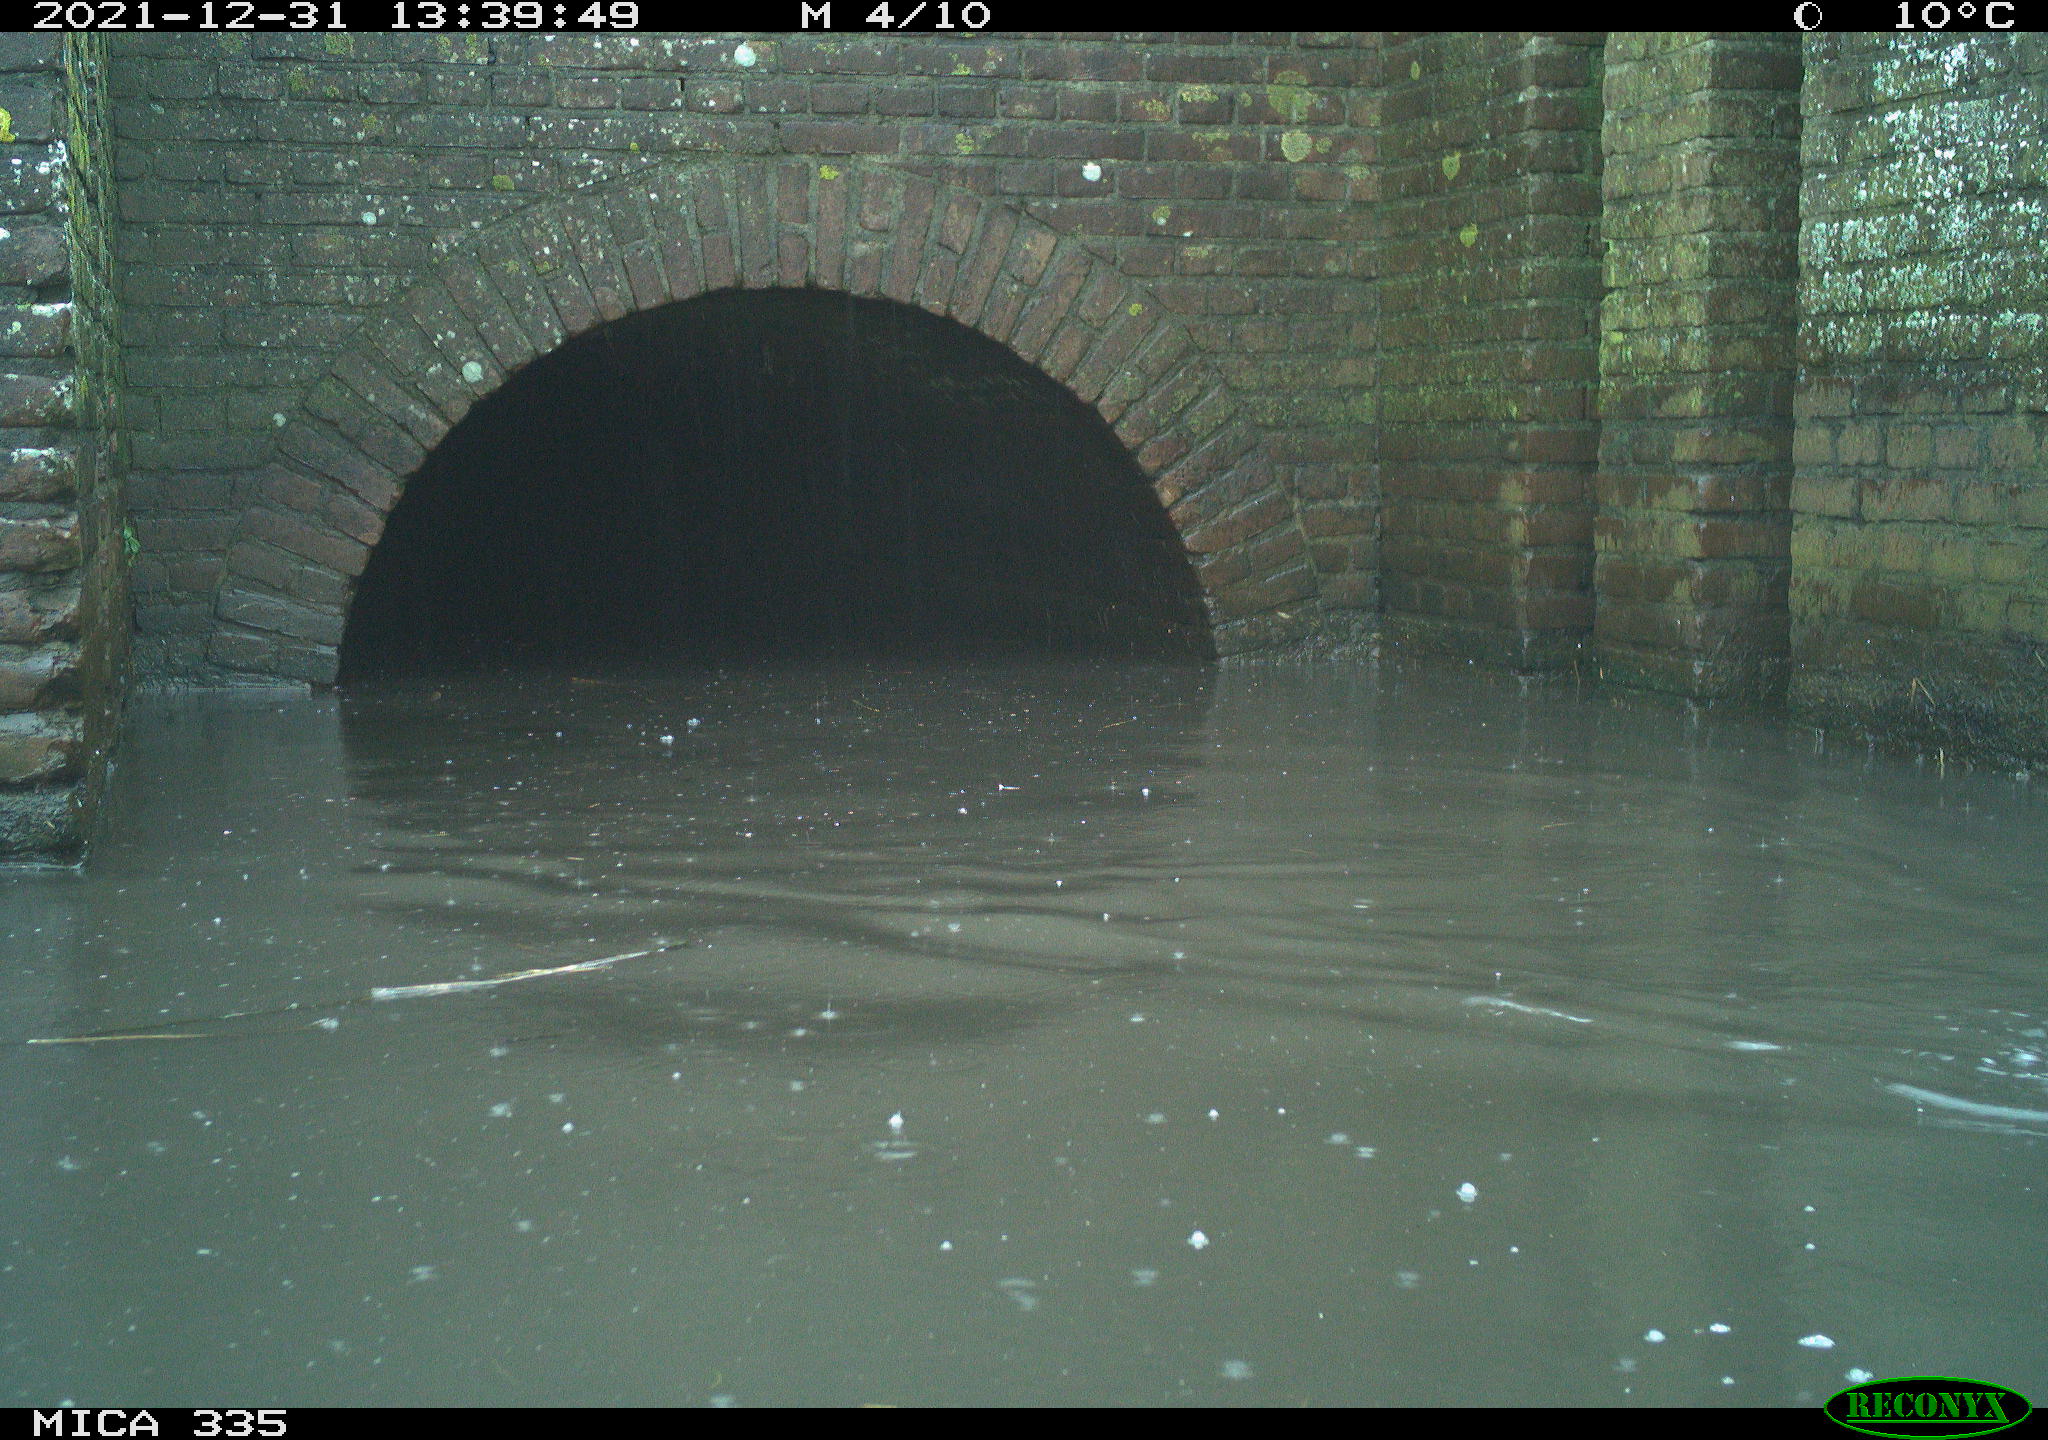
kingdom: Animalia
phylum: Chordata
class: Aves
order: Suliformes
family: Phalacrocoracidae
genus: Phalacrocorax
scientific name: Phalacrocorax carbo
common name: Great cormorant
